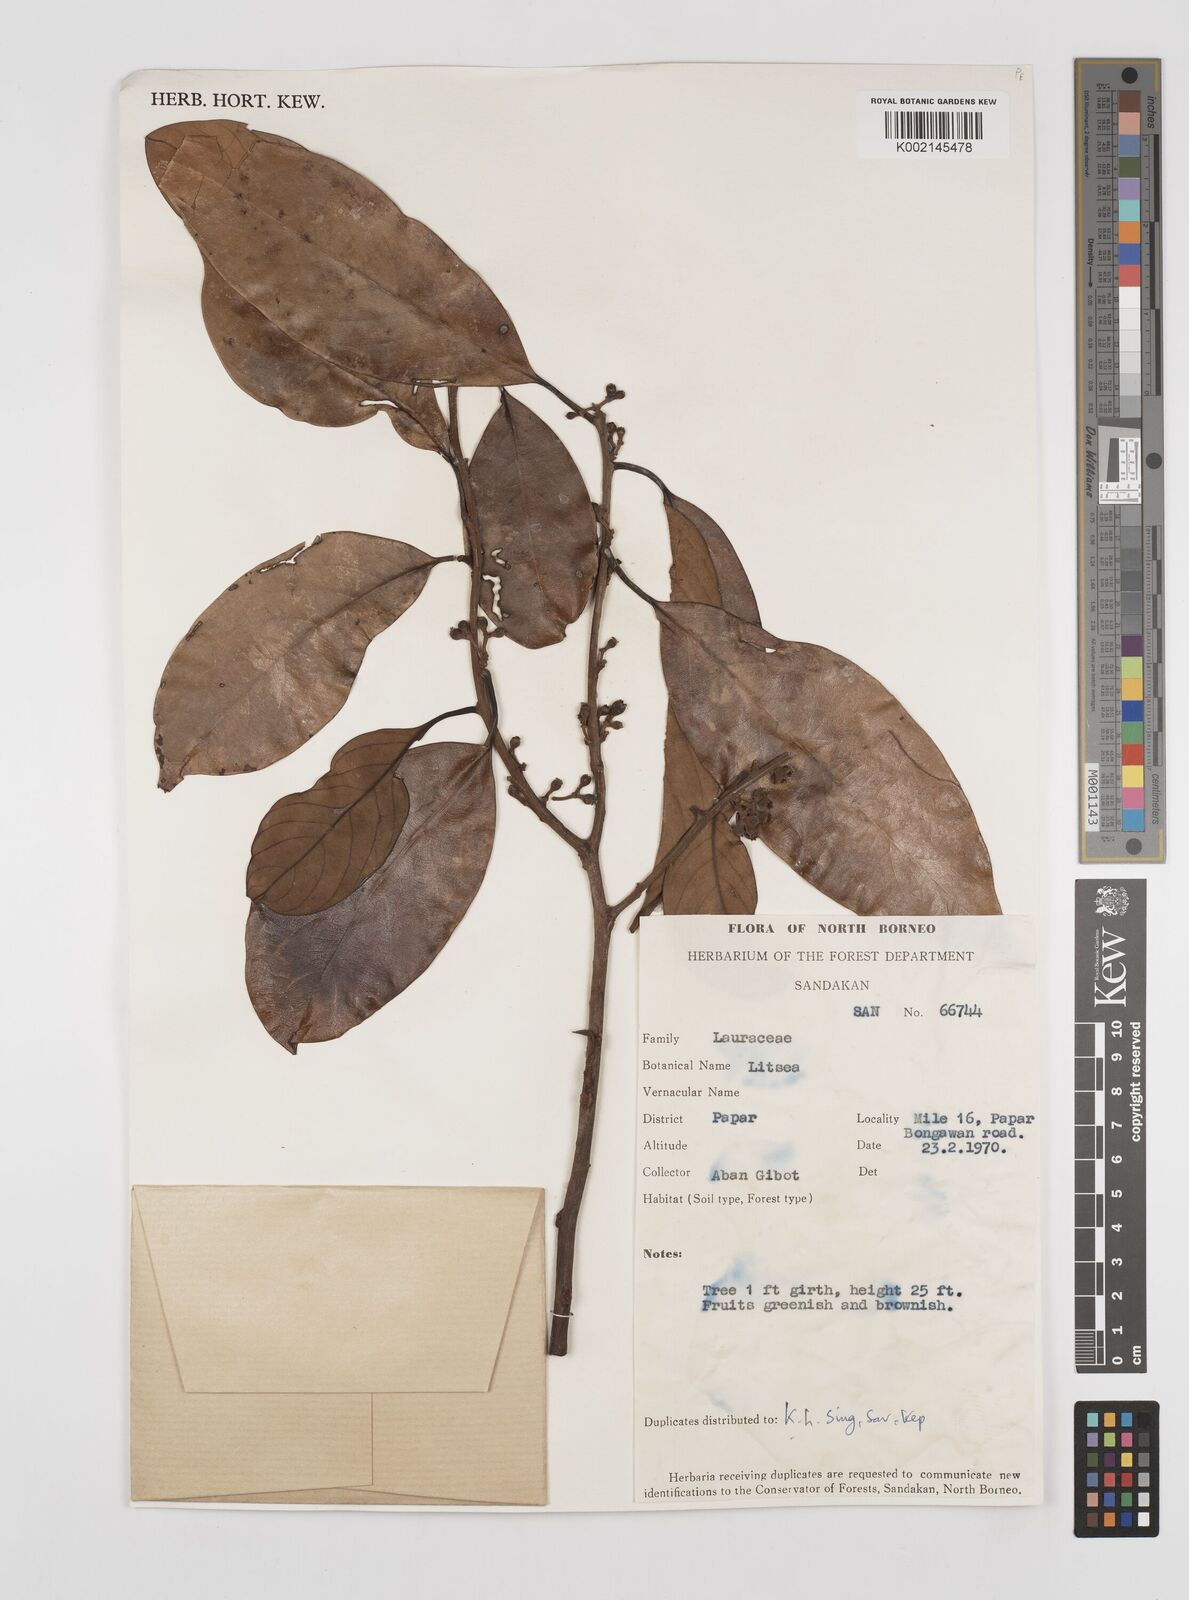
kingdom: Plantae
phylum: Tracheophyta
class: Magnoliopsida
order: Laurales
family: Lauraceae
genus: Litsea
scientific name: Litsea
